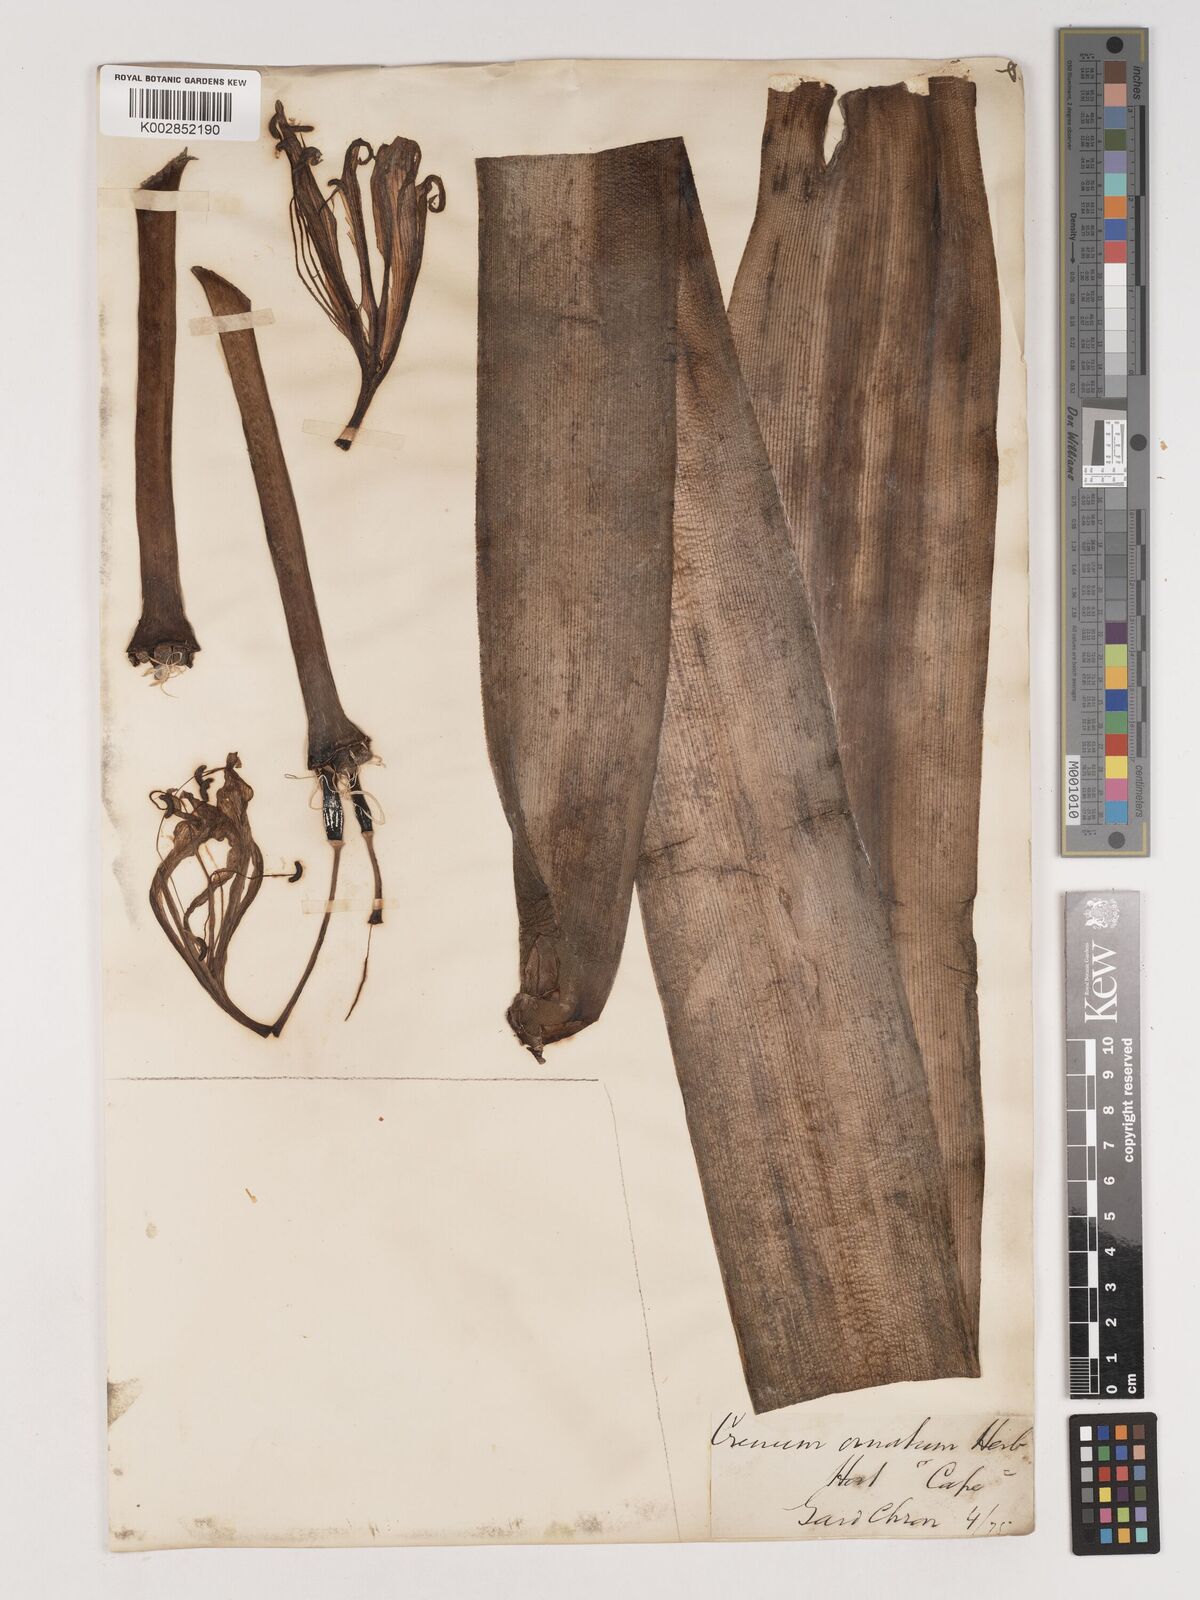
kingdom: Plantae
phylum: Tracheophyta
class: Liliopsida
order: Asparagales
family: Amaryllidaceae
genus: Crinum
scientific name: Crinum ornatum
